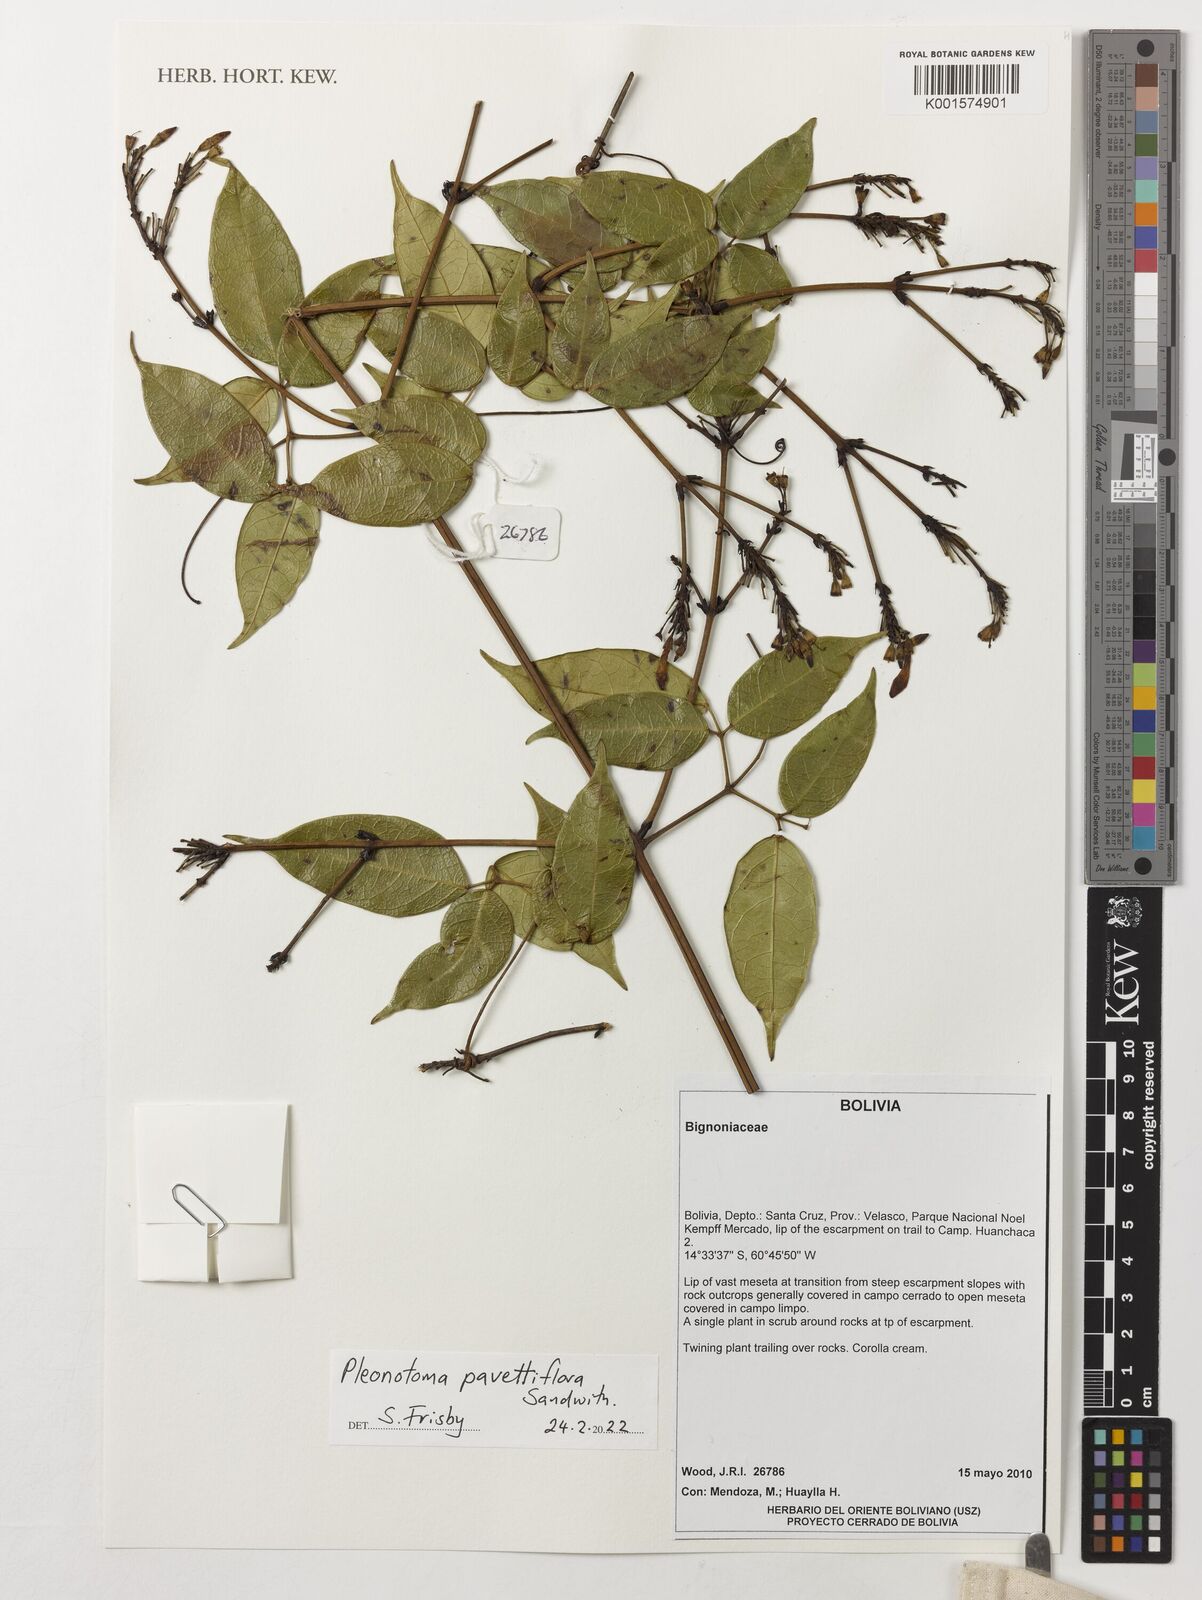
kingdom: Plantae
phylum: Tracheophyta
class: Magnoliopsida
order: Lamiales
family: Bignoniaceae
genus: Pleonotoma
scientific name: Pleonotoma pavettiflora
